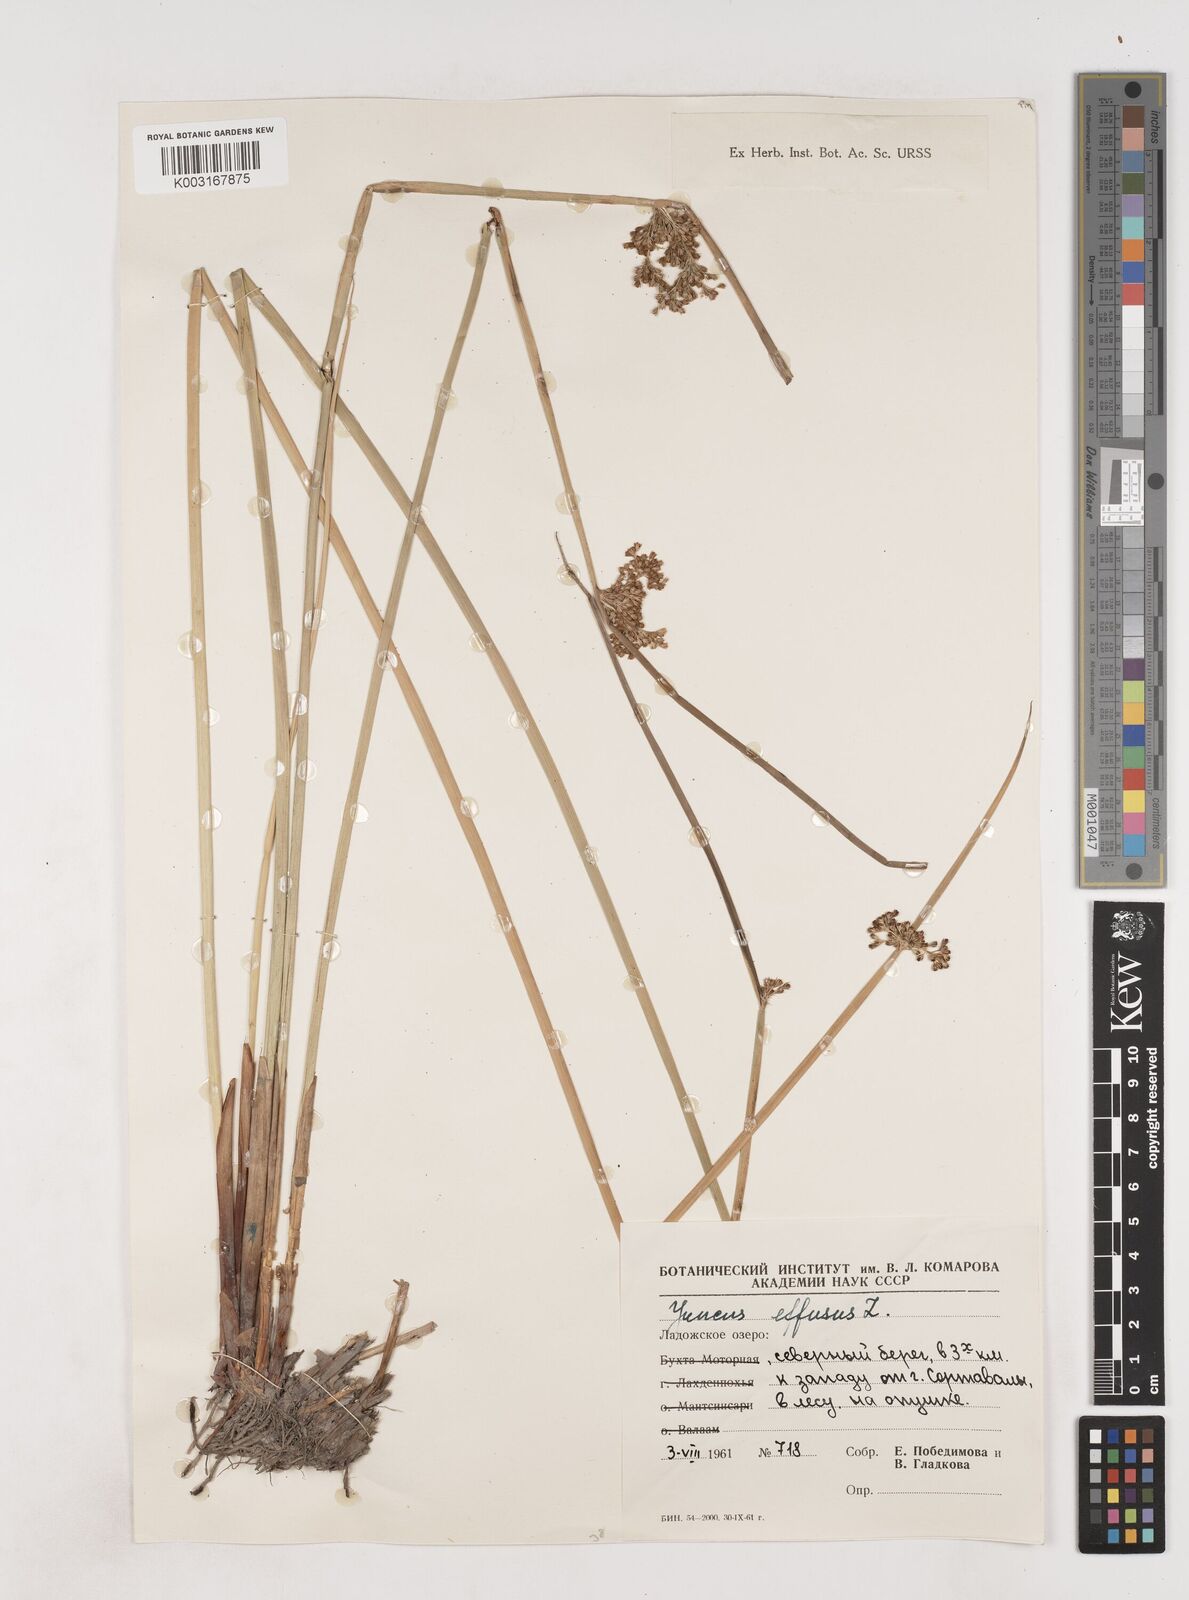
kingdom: Plantae
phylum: Tracheophyta
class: Liliopsida
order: Poales
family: Juncaceae
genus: Juncus
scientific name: Juncus effusus
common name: Soft rush
